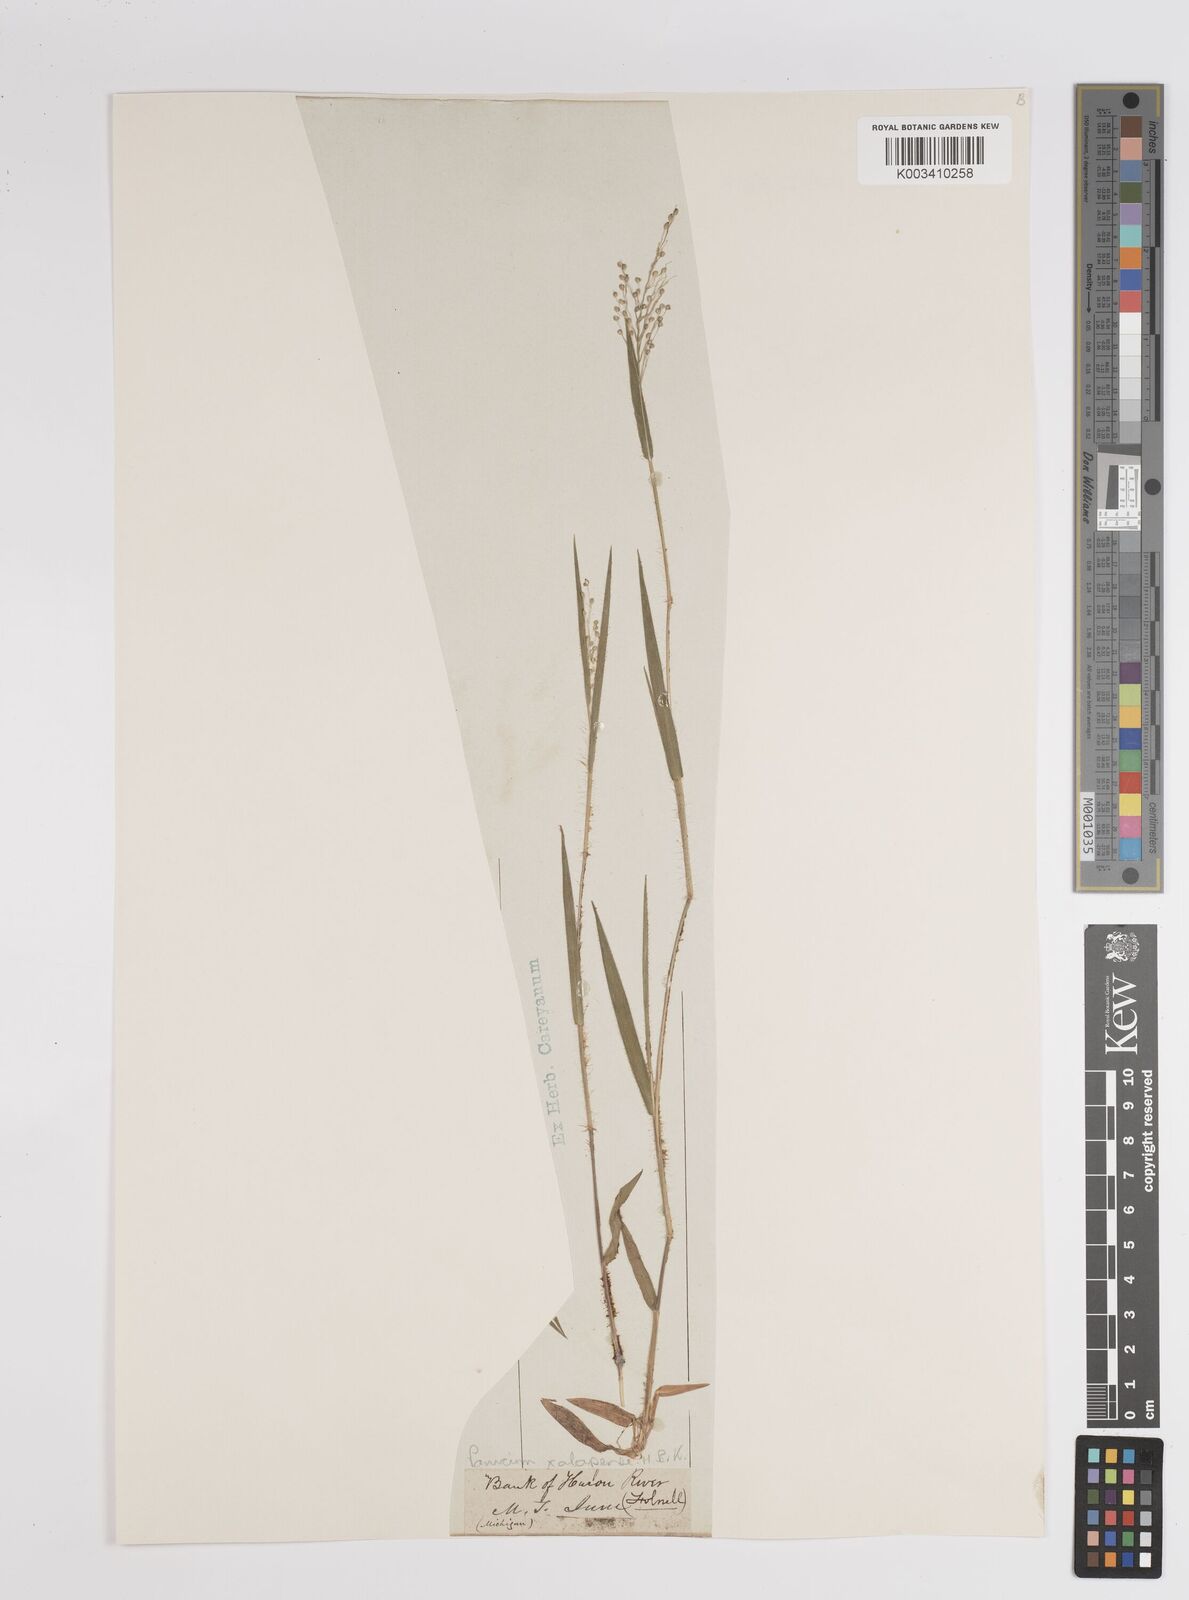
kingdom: Plantae
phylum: Tracheophyta
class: Liliopsida
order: Poales
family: Poaceae
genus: Dichanthelium
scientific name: Dichanthelium laxiflorum
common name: Soft-tuft panic grass
